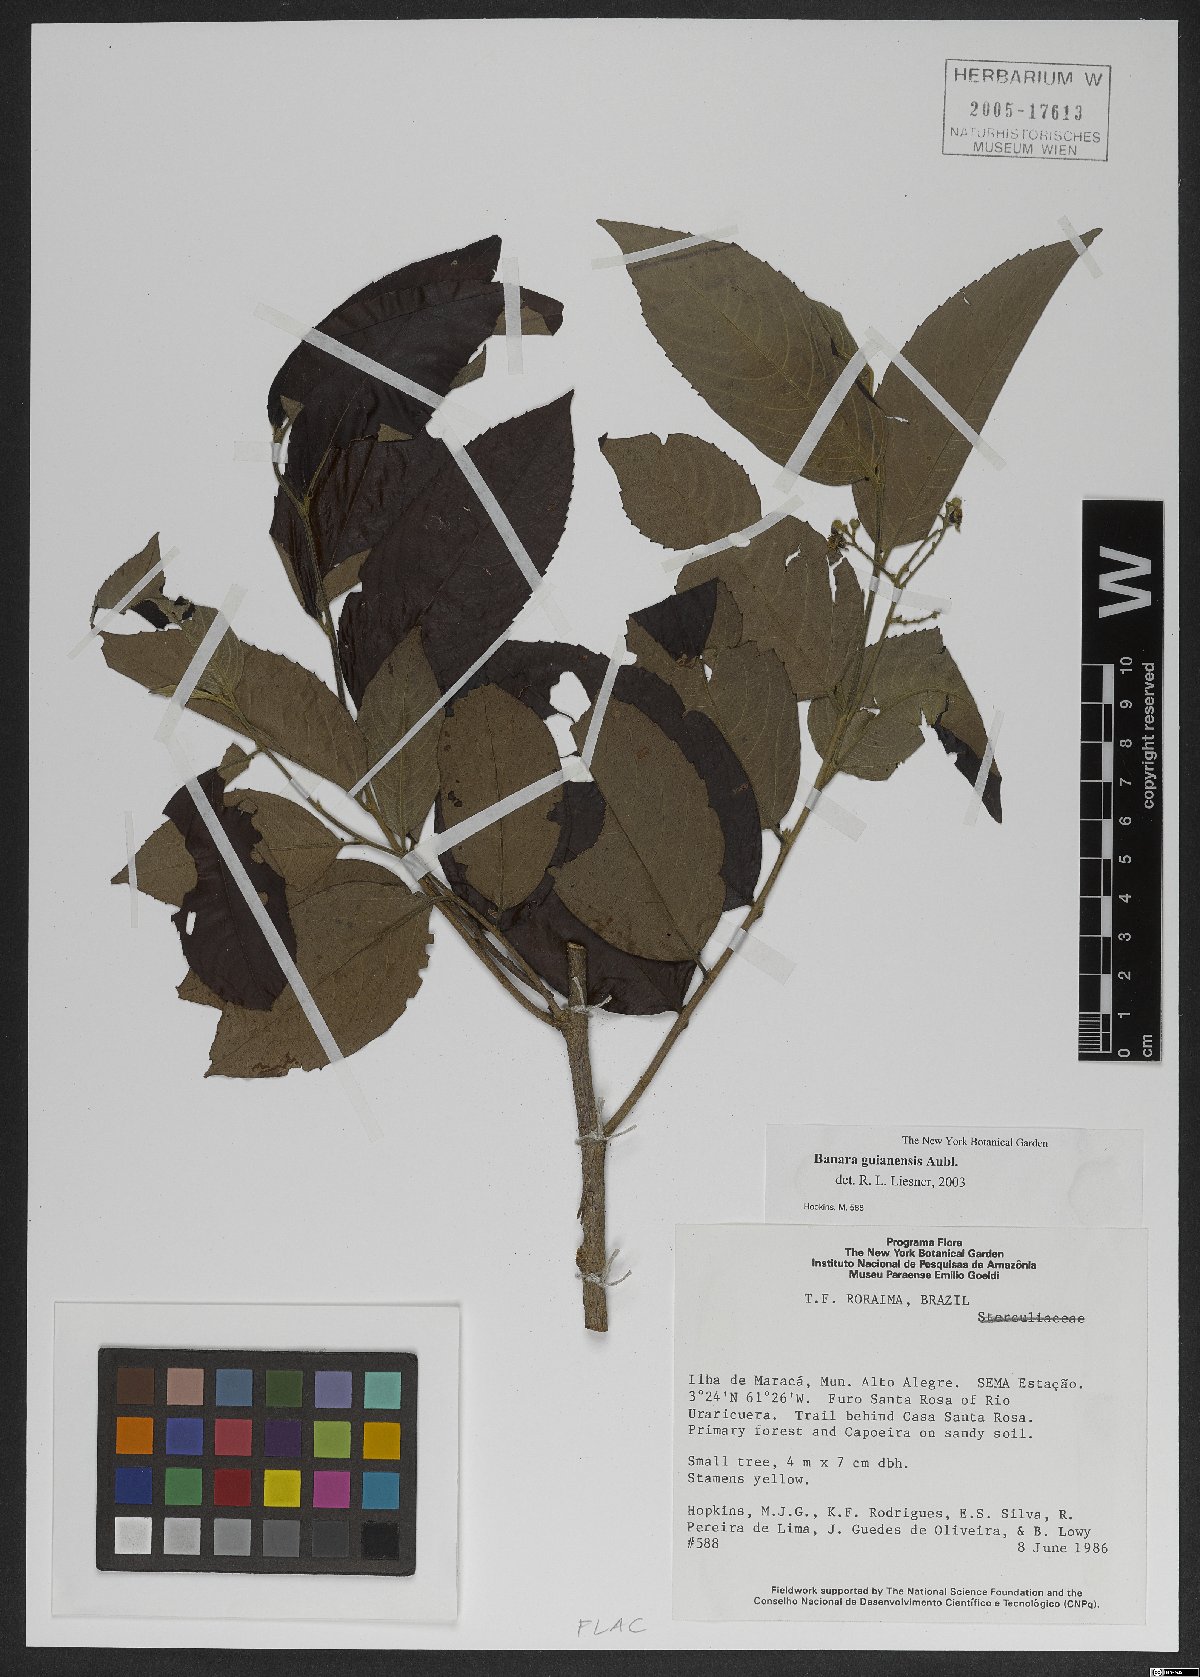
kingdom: Plantae
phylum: Tracheophyta
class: Magnoliopsida
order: Malpighiales
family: Salicaceae
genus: Banara
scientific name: Banara guianensis
